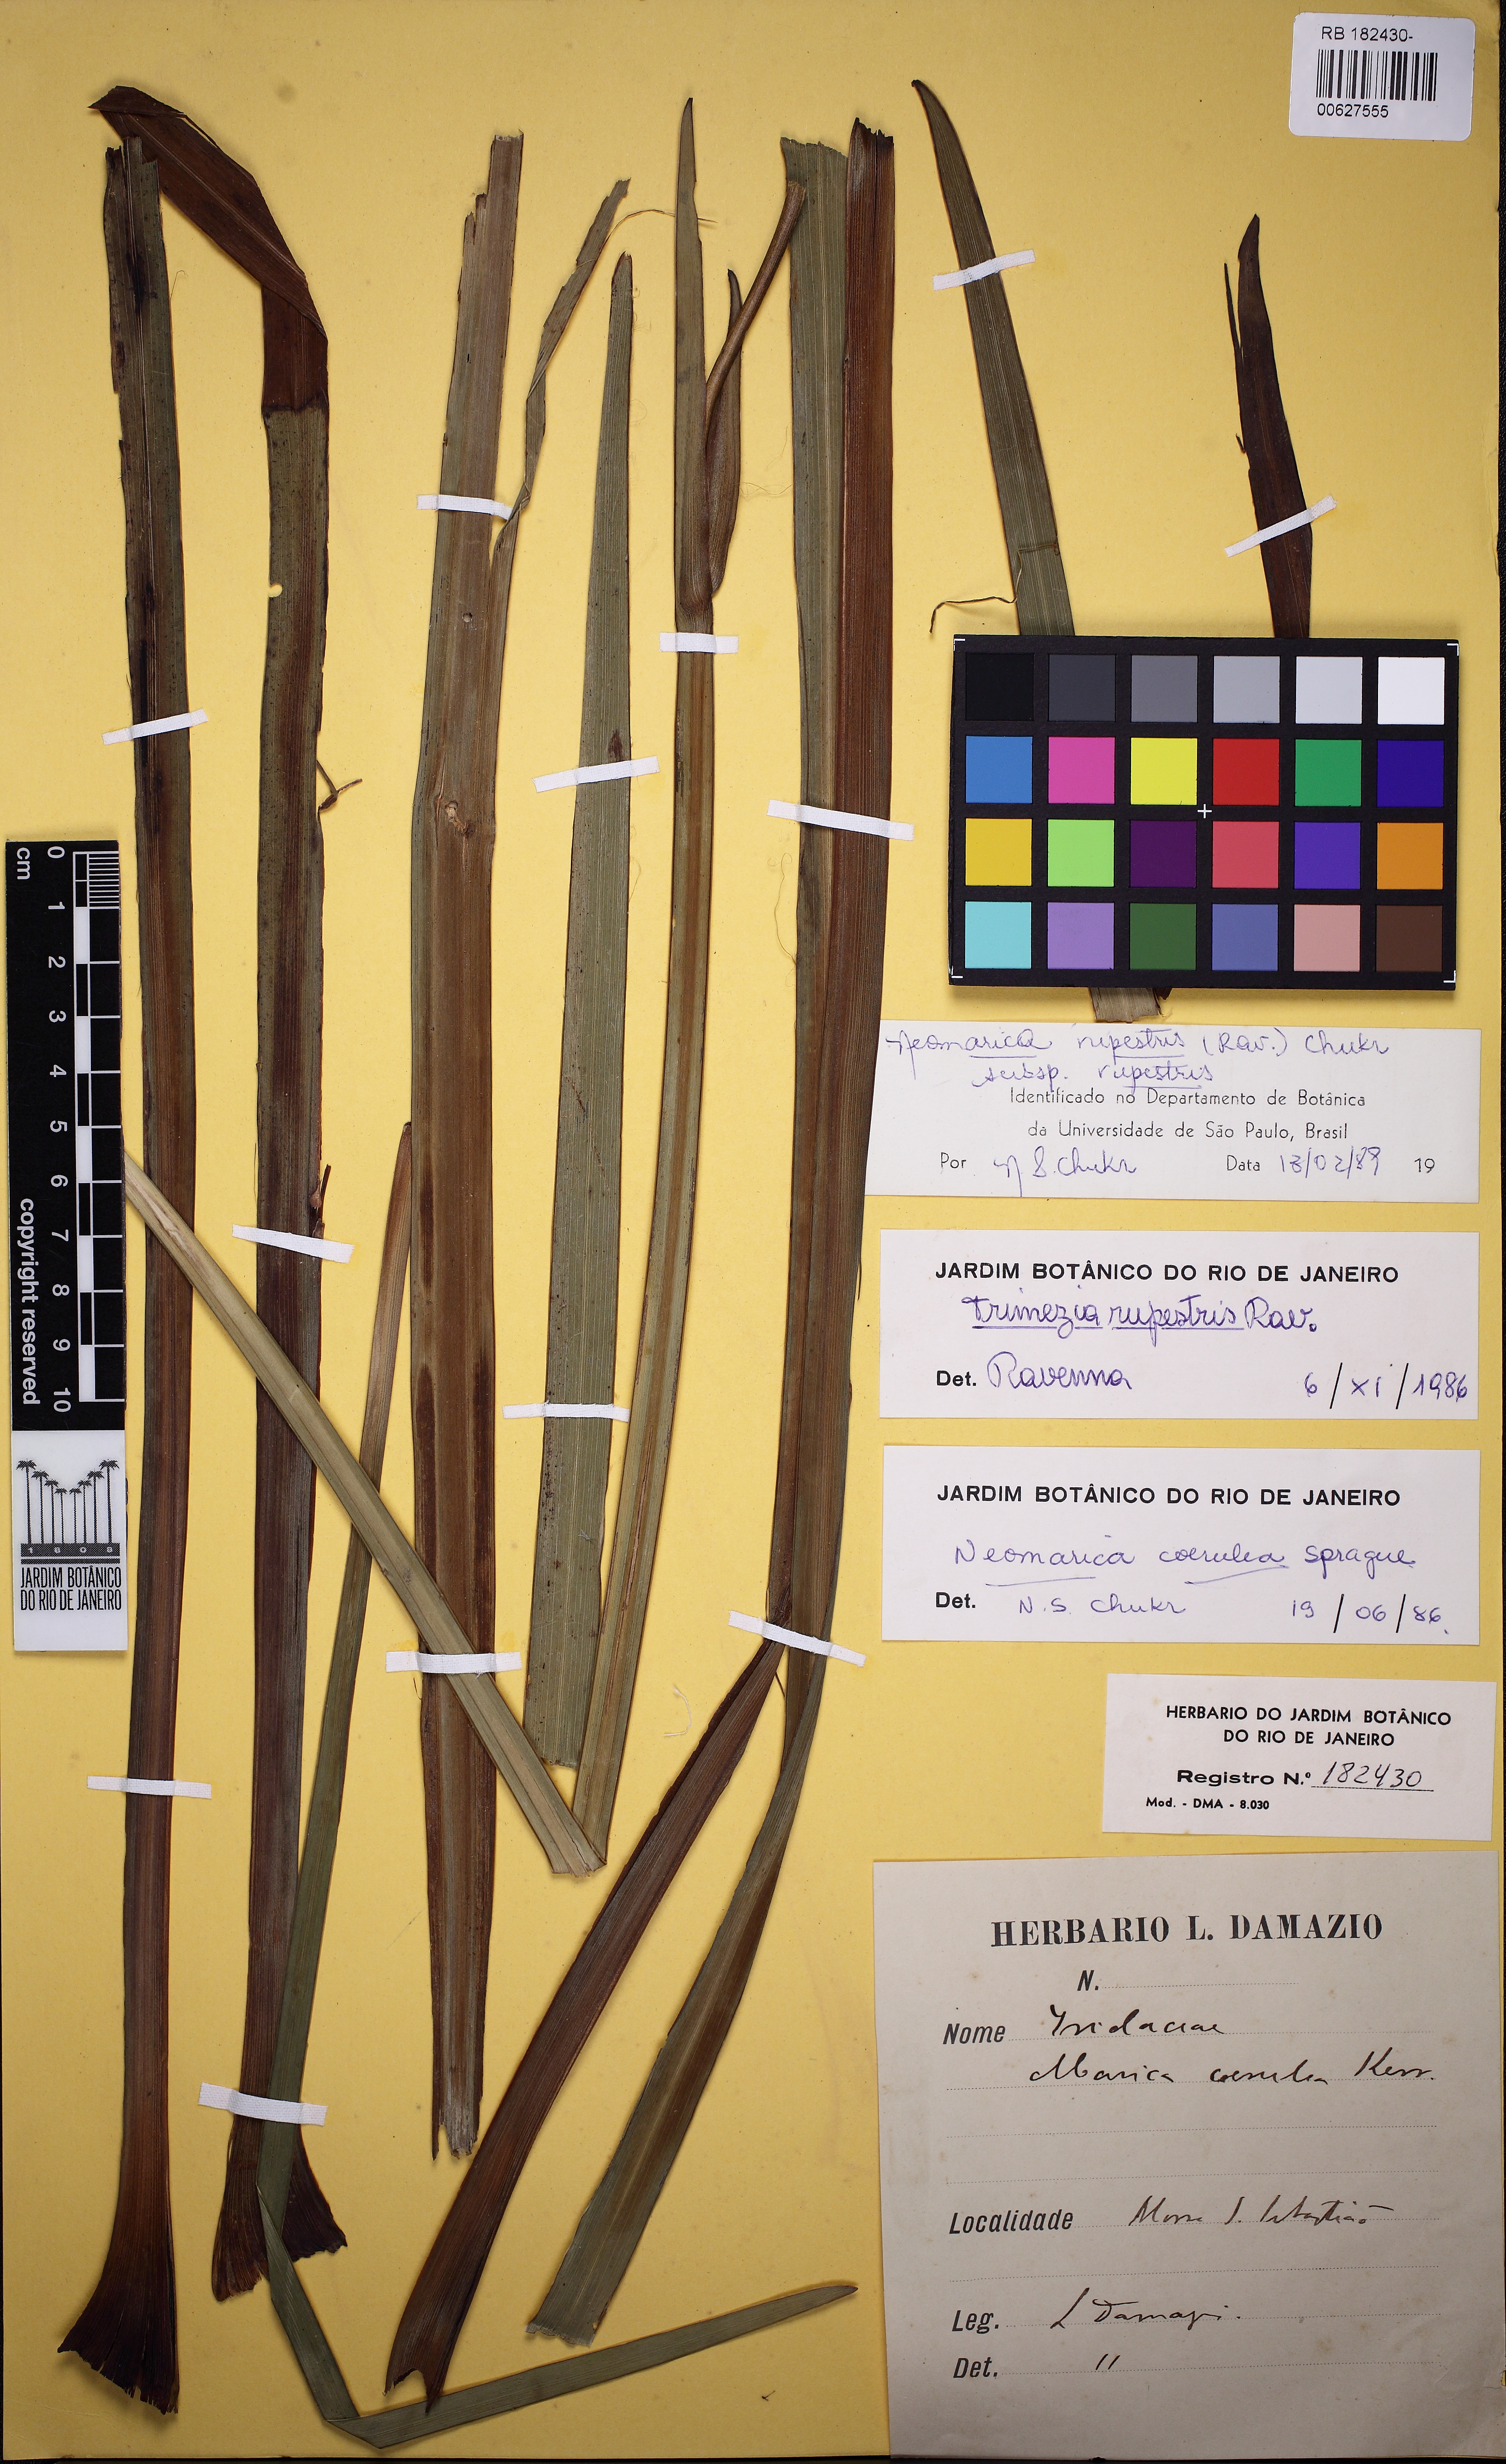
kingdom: Plantae
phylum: Tracheophyta
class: Liliopsida
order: Asparagales
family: Iridaceae
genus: Trimezia
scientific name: Trimezia rupestris
